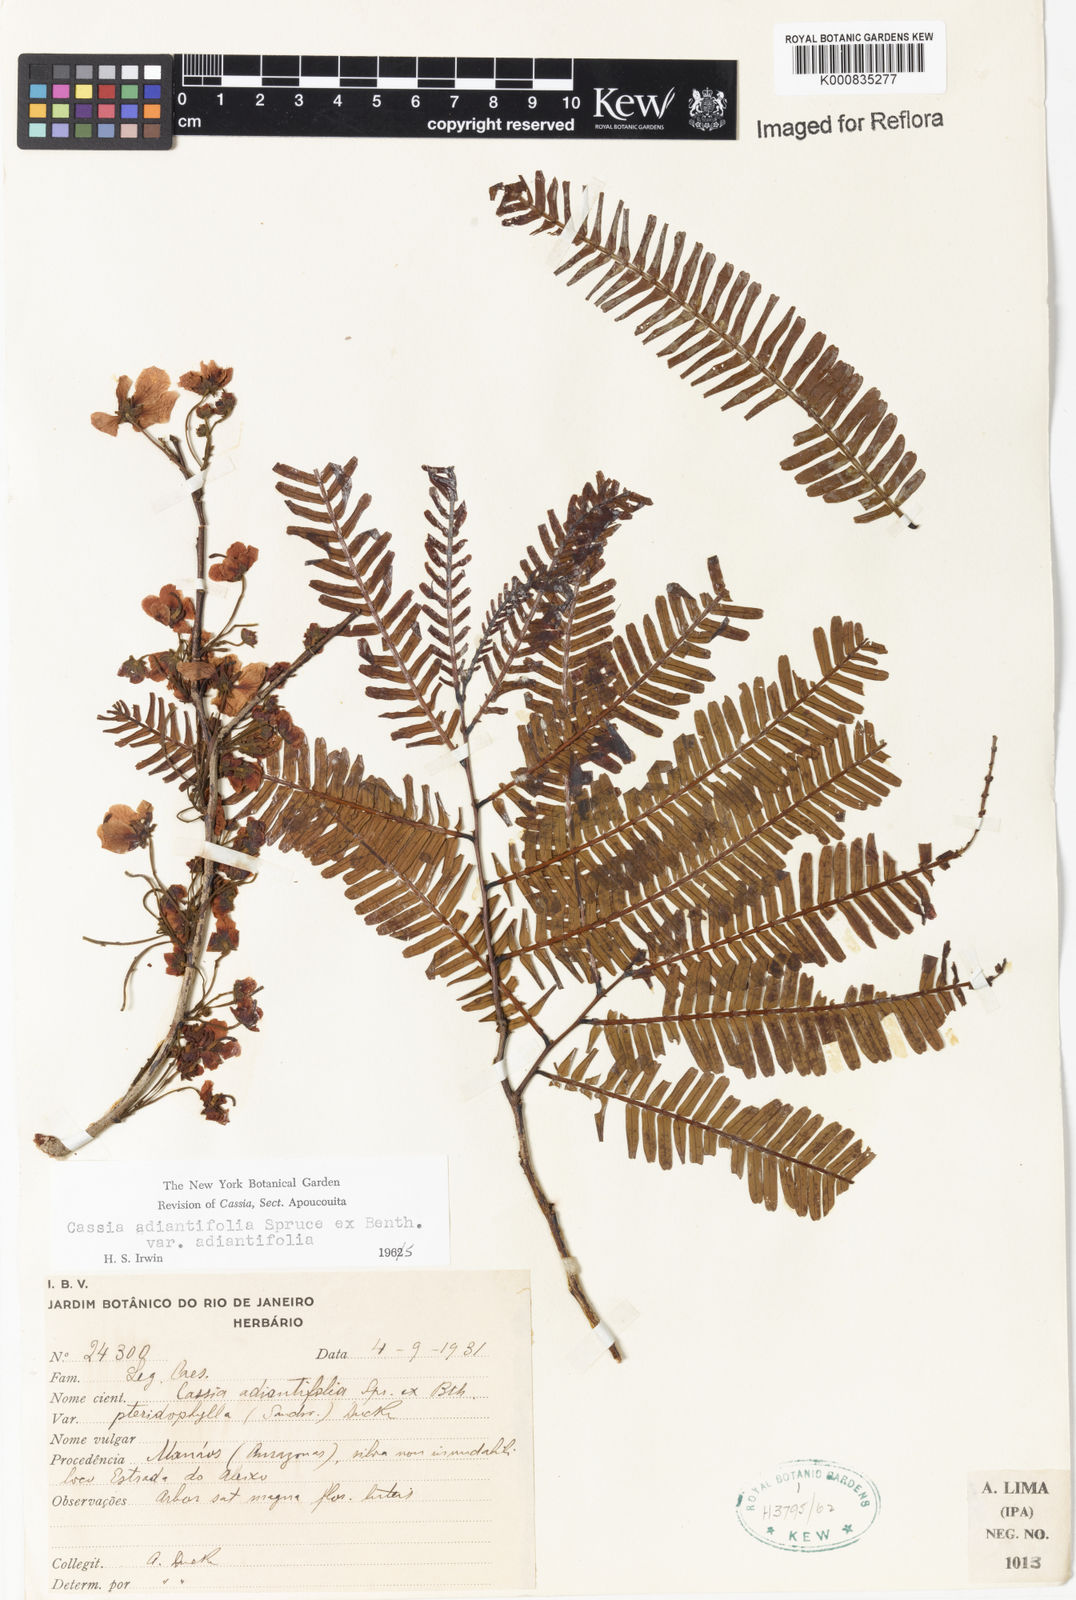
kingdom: Plantae
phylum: Tracheophyta
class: Magnoliopsida
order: Fabales
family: Fabaceae
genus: Chamaecrista
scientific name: Chamaecrista adiantifolia
